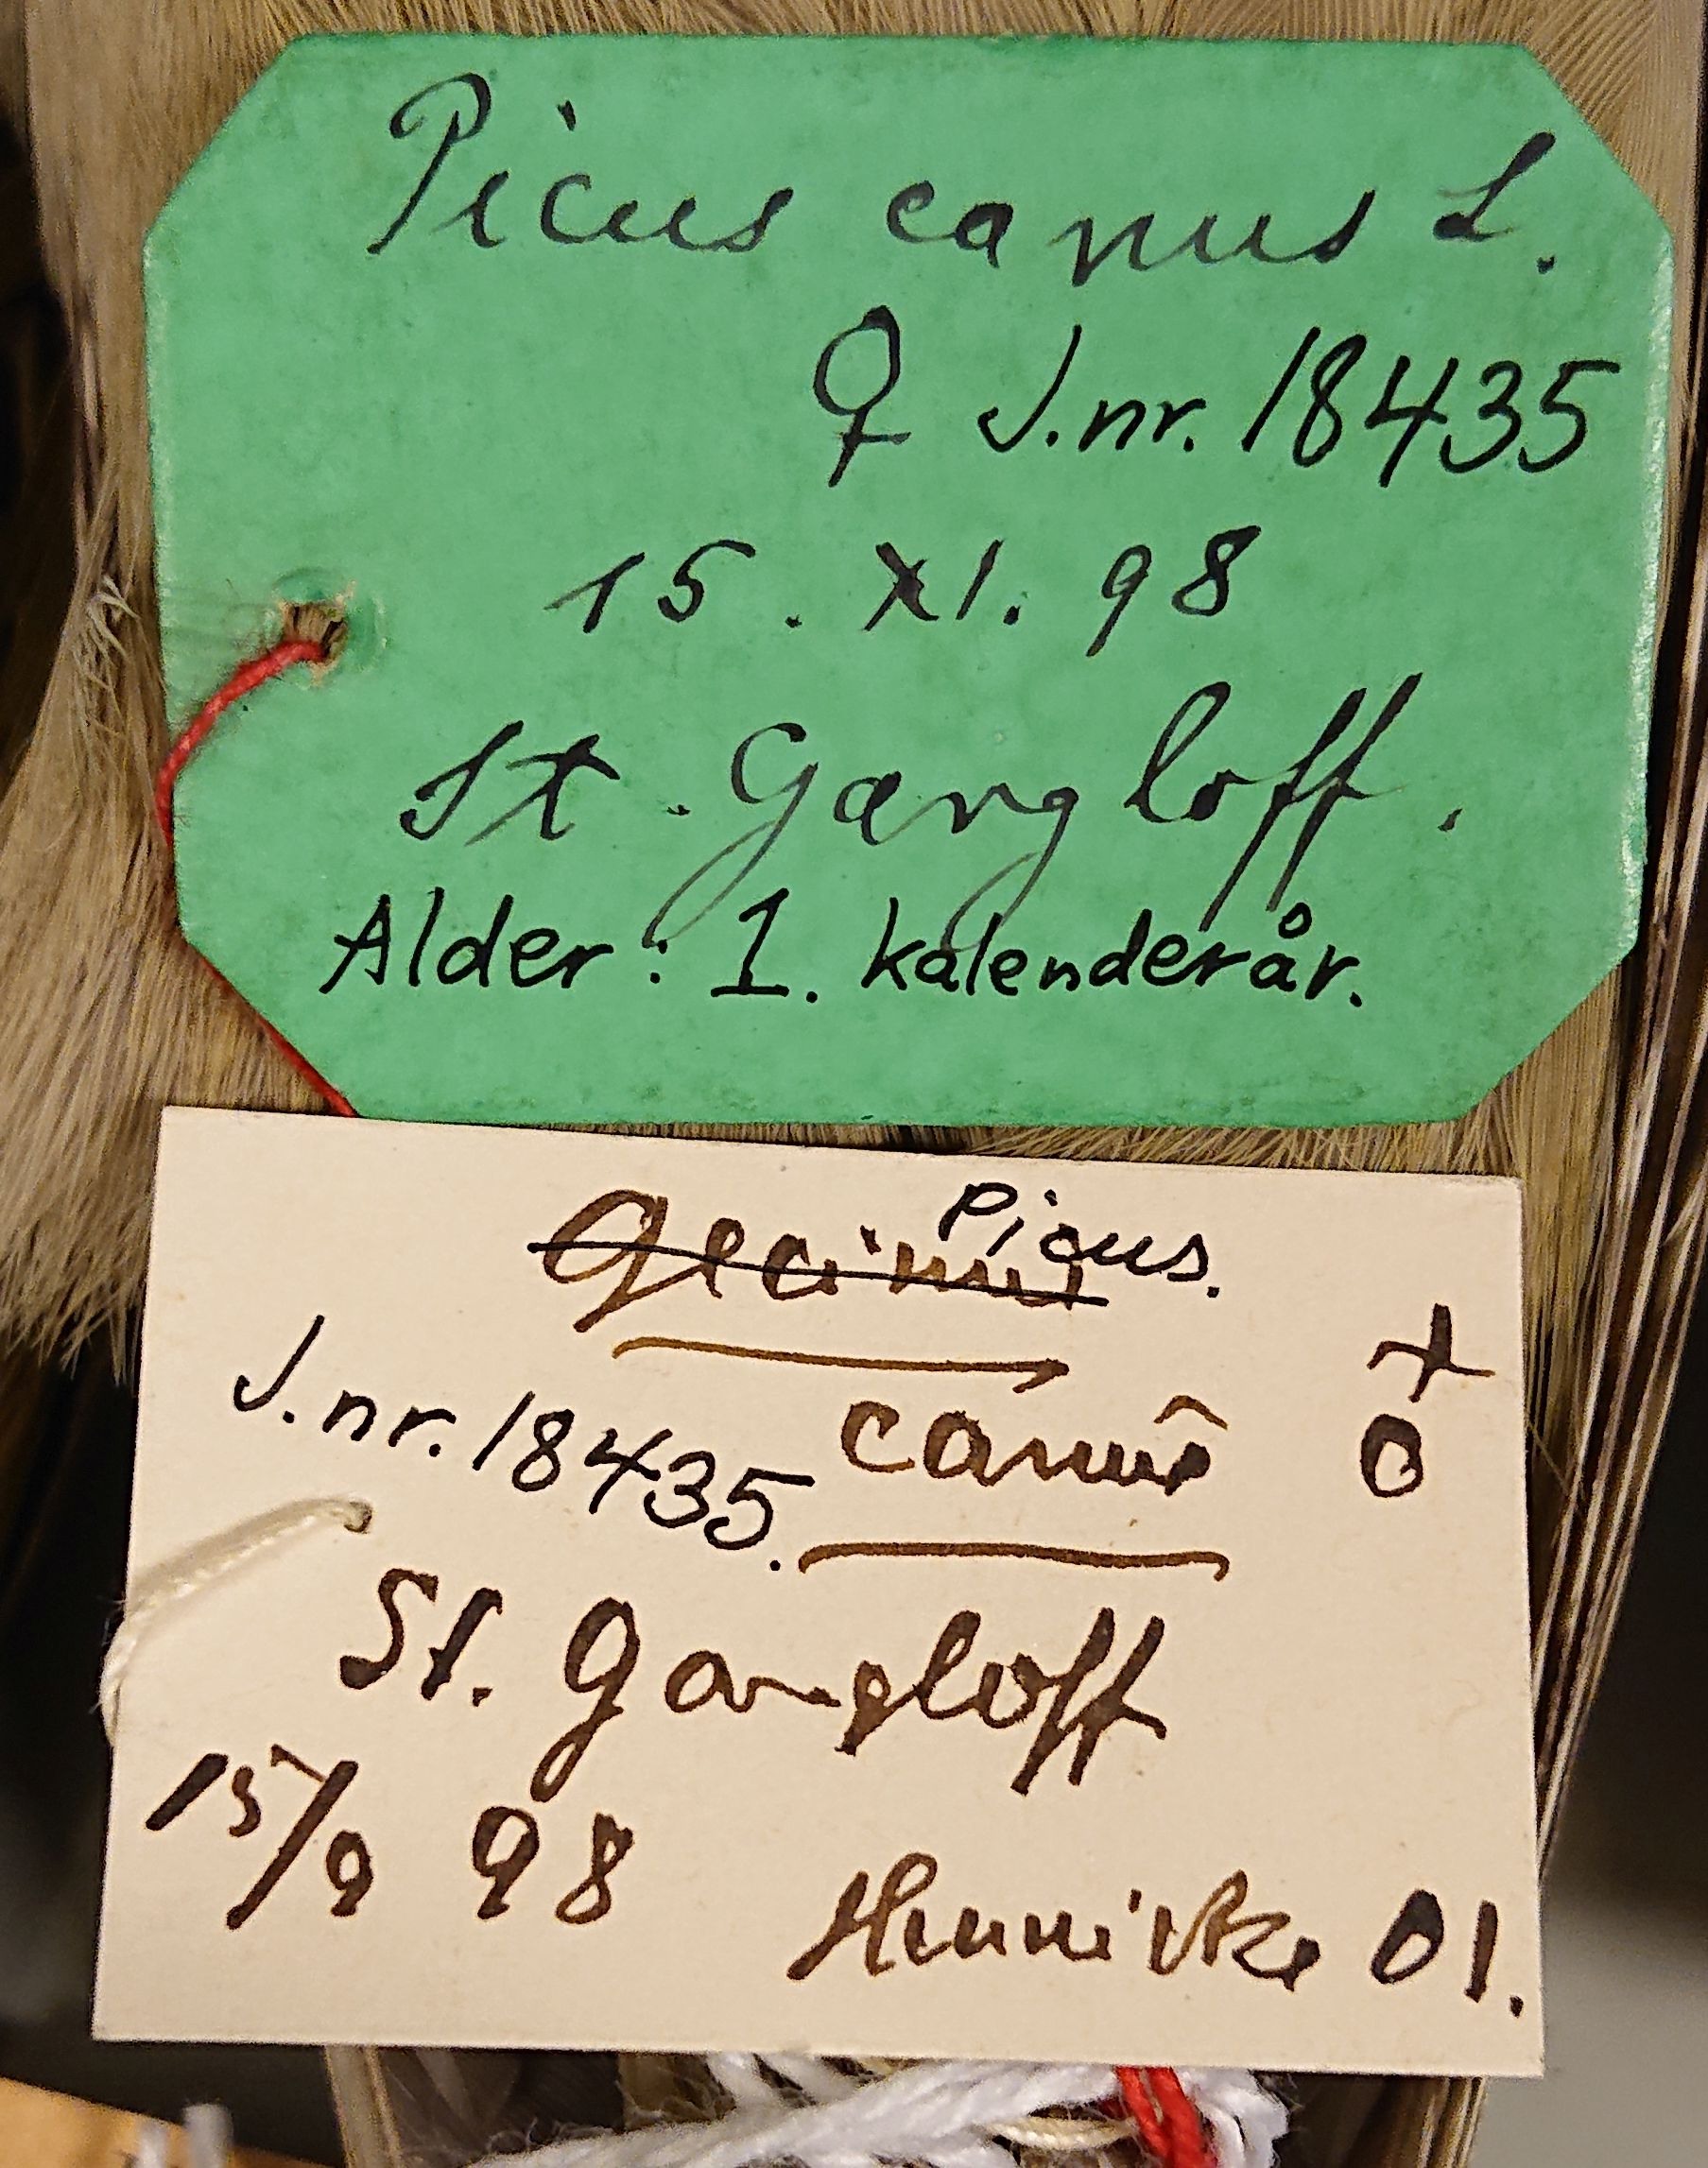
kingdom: Animalia
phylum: Chordata
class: Aves
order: Piciformes
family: Picidae
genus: Picus
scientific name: Picus canus
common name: Grey-headed woodpecker
